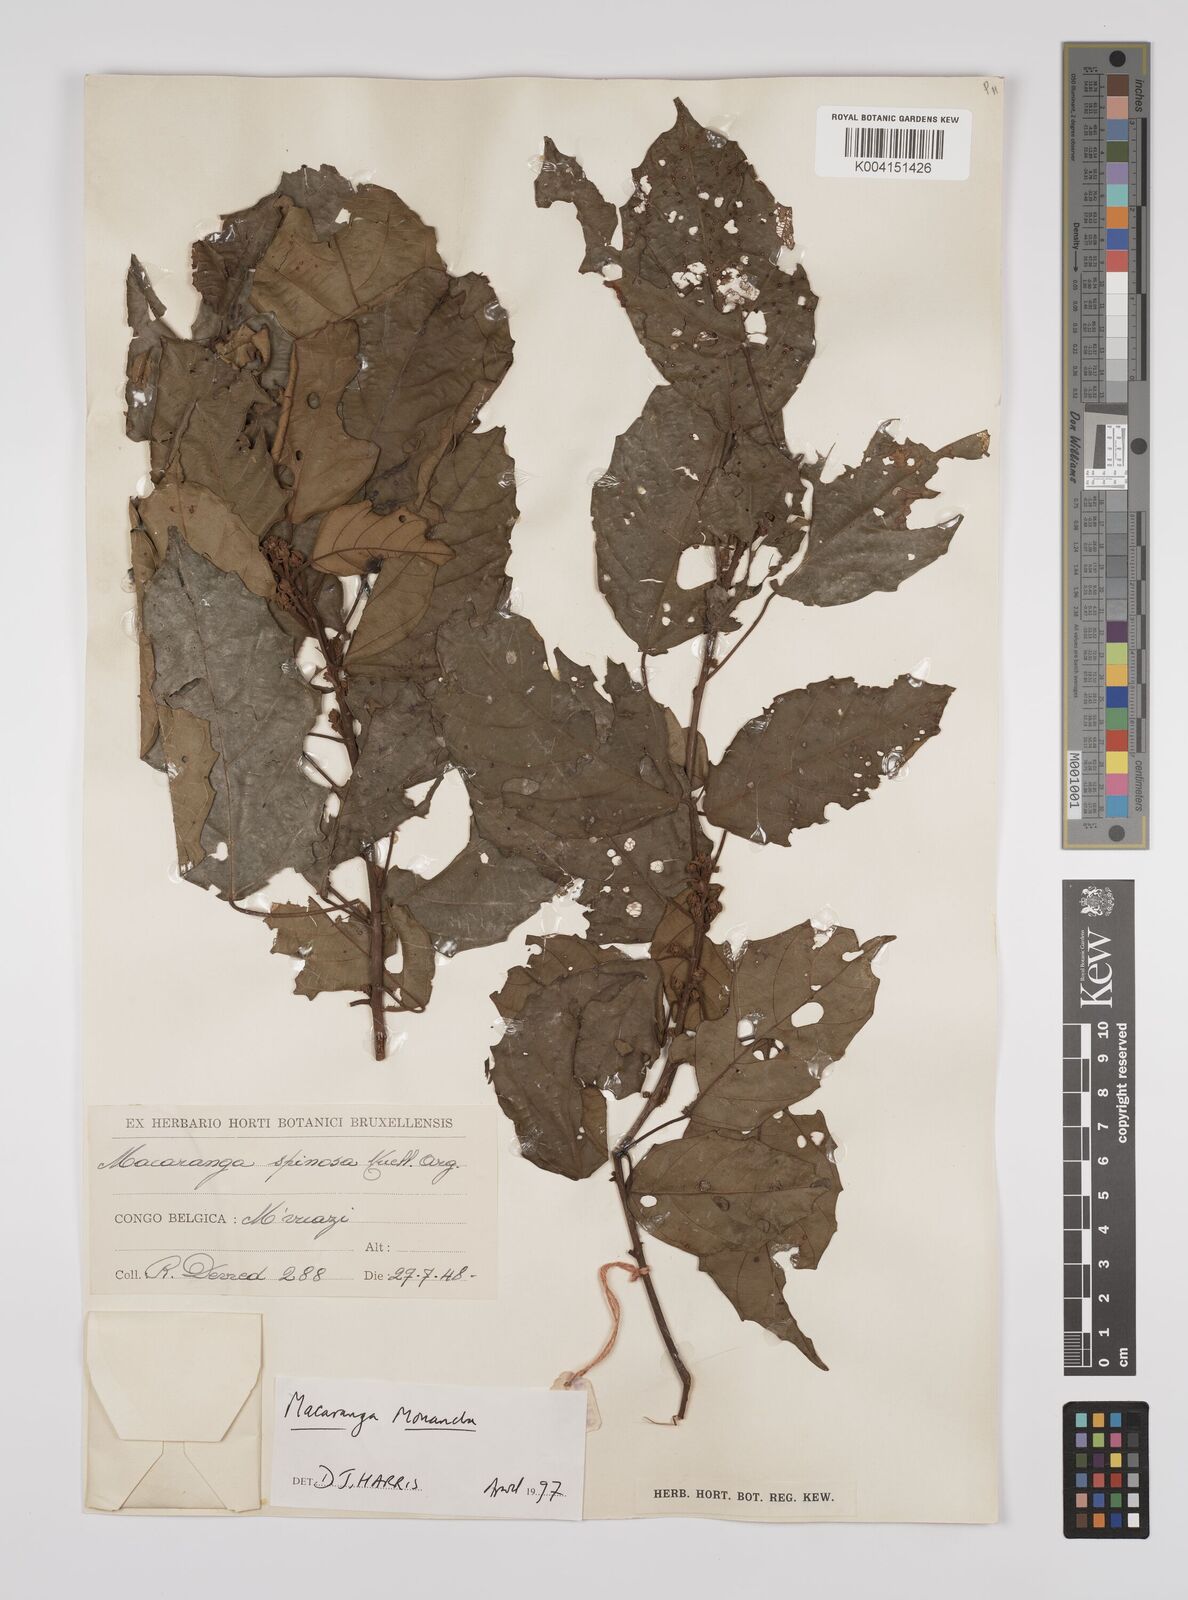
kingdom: Plantae
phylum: Tracheophyta
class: Magnoliopsida
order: Malpighiales
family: Euphorbiaceae
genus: Macaranga
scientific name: Macaranga monandra
